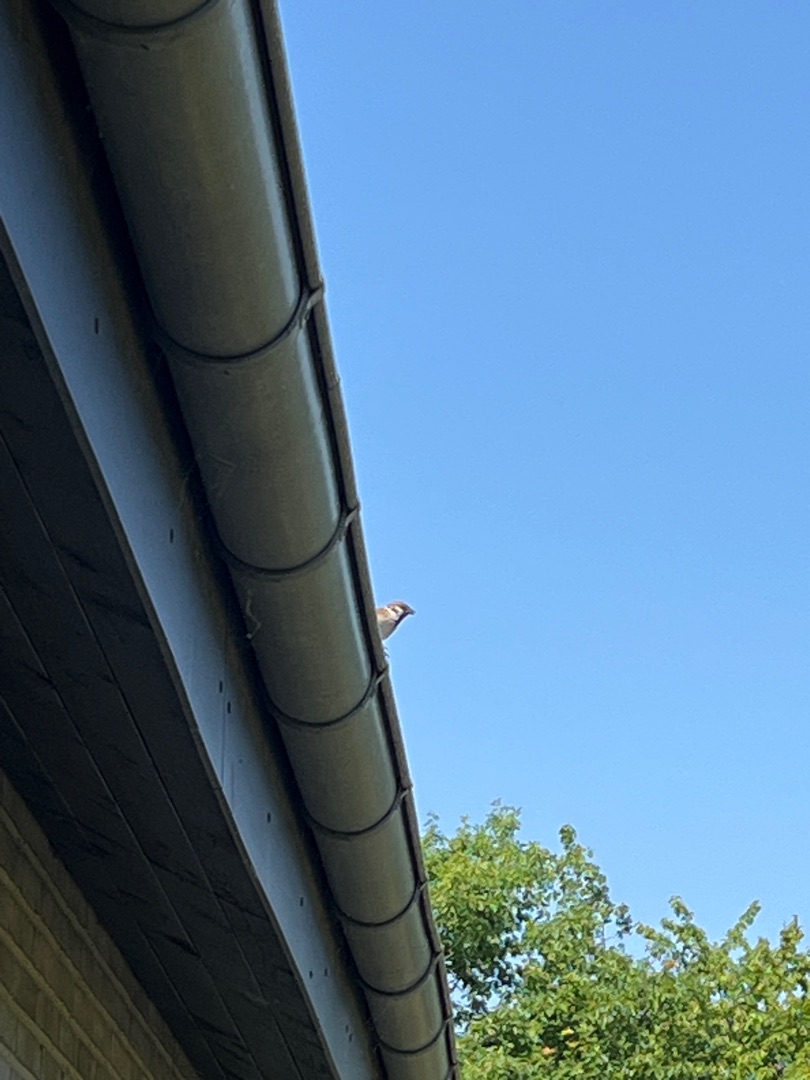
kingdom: Animalia
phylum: Chordata
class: Aves
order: Passeriformes
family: Passeridae
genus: Passer
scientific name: Passer montanus
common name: Skovspurv
